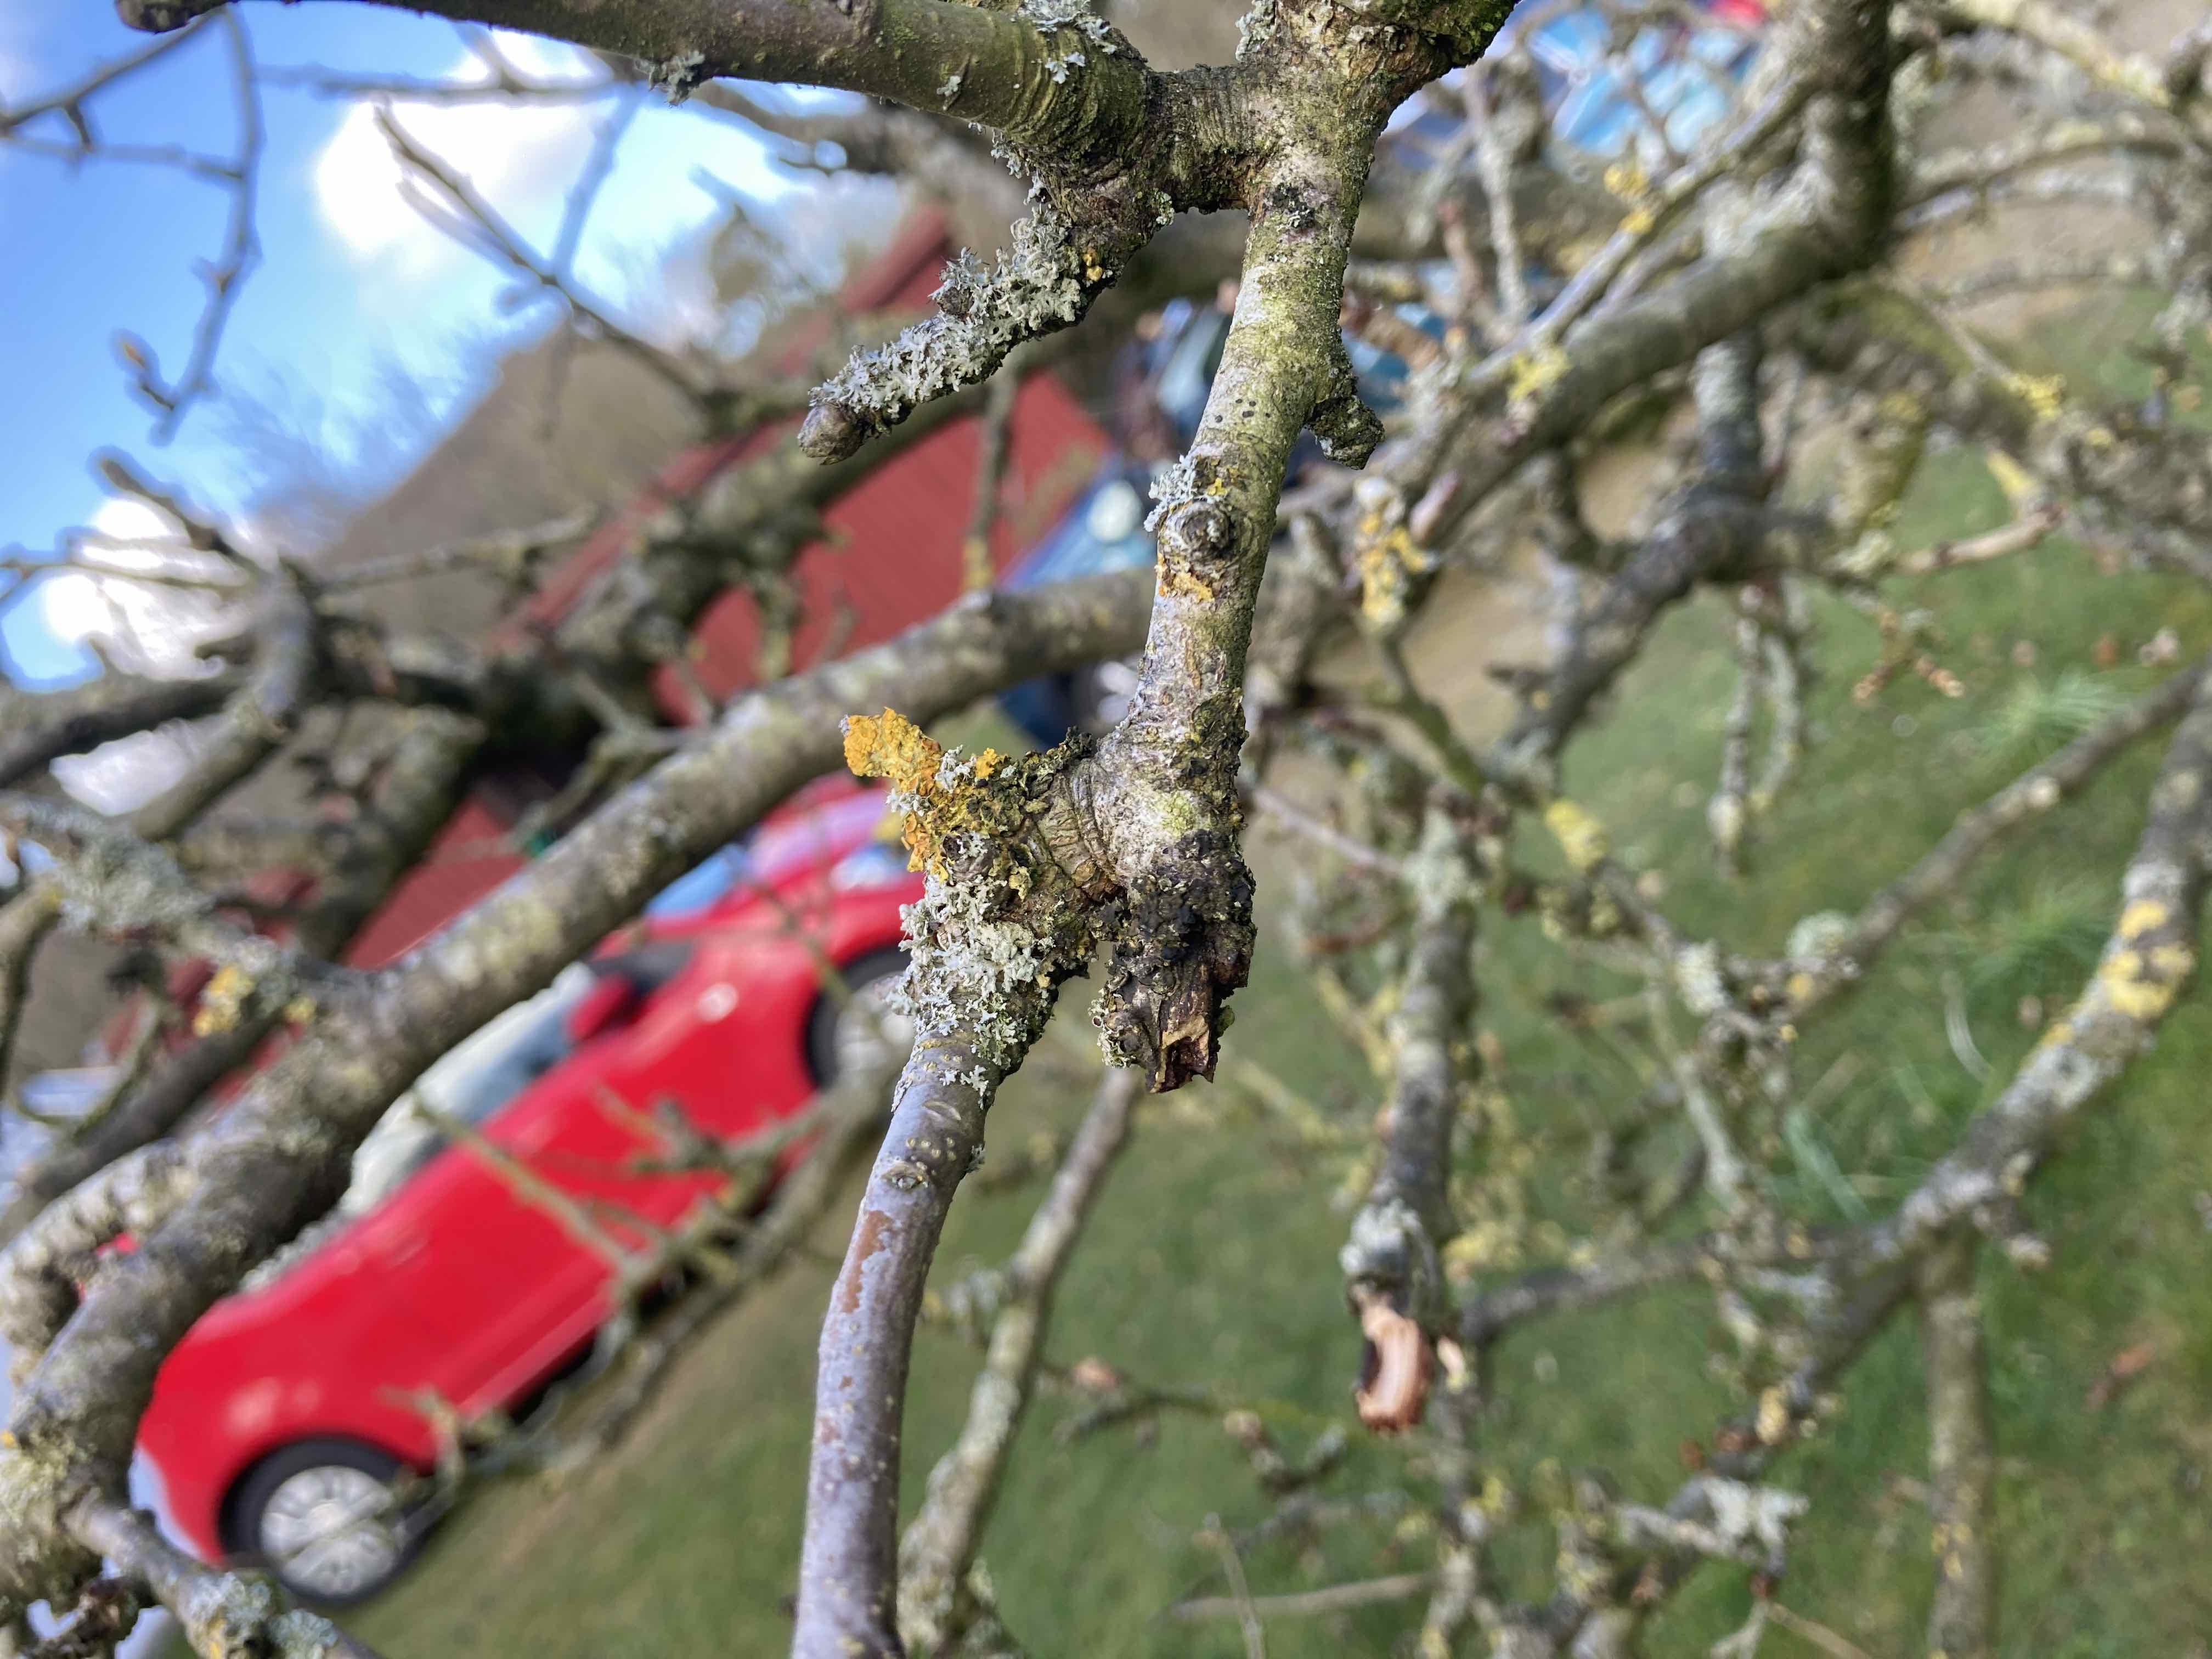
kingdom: Fungi
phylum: Ascomycota
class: Dothideomycetes
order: Mycosphaerellales
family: Teratosphaeriaceae
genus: Xanthoriicola
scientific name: Xanthoriicola physciae
